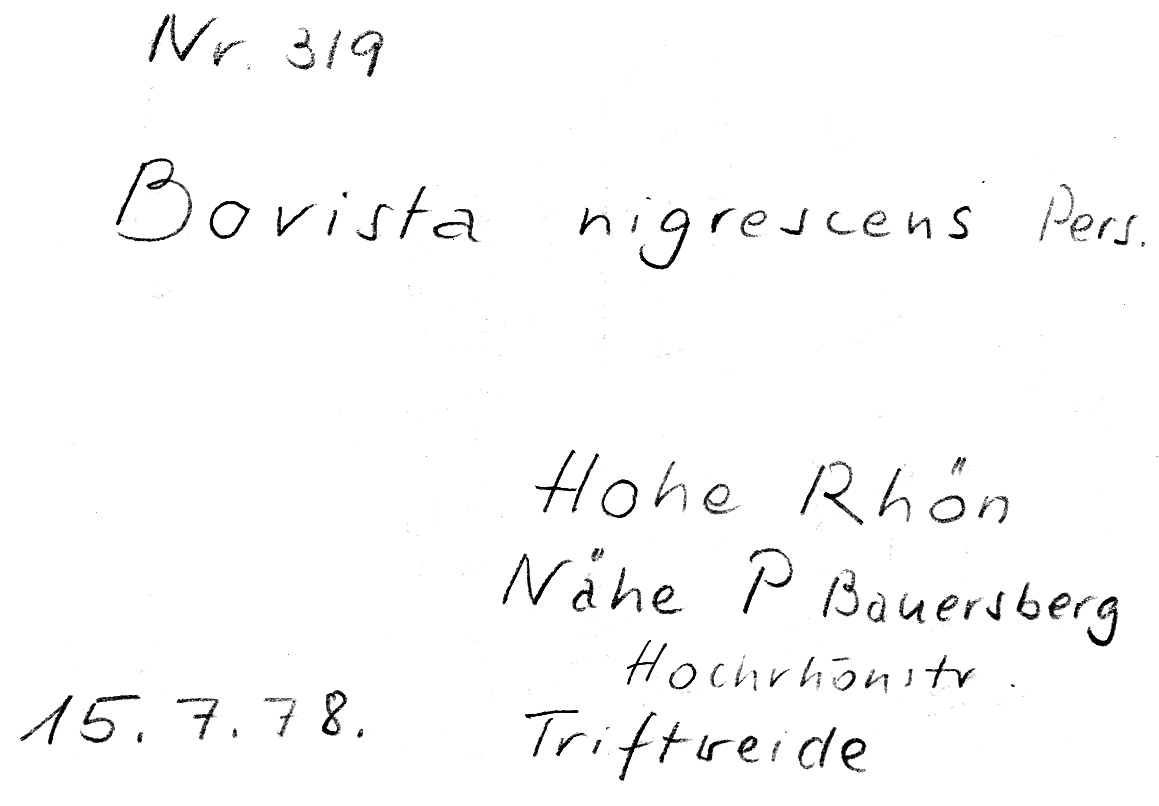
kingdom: Fungi
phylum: Basidiomycota
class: Agaricomycetes
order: Agaricales
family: Lycoperdaceae
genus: Bovista
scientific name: Bovista nigrescens
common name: Brown puffball
